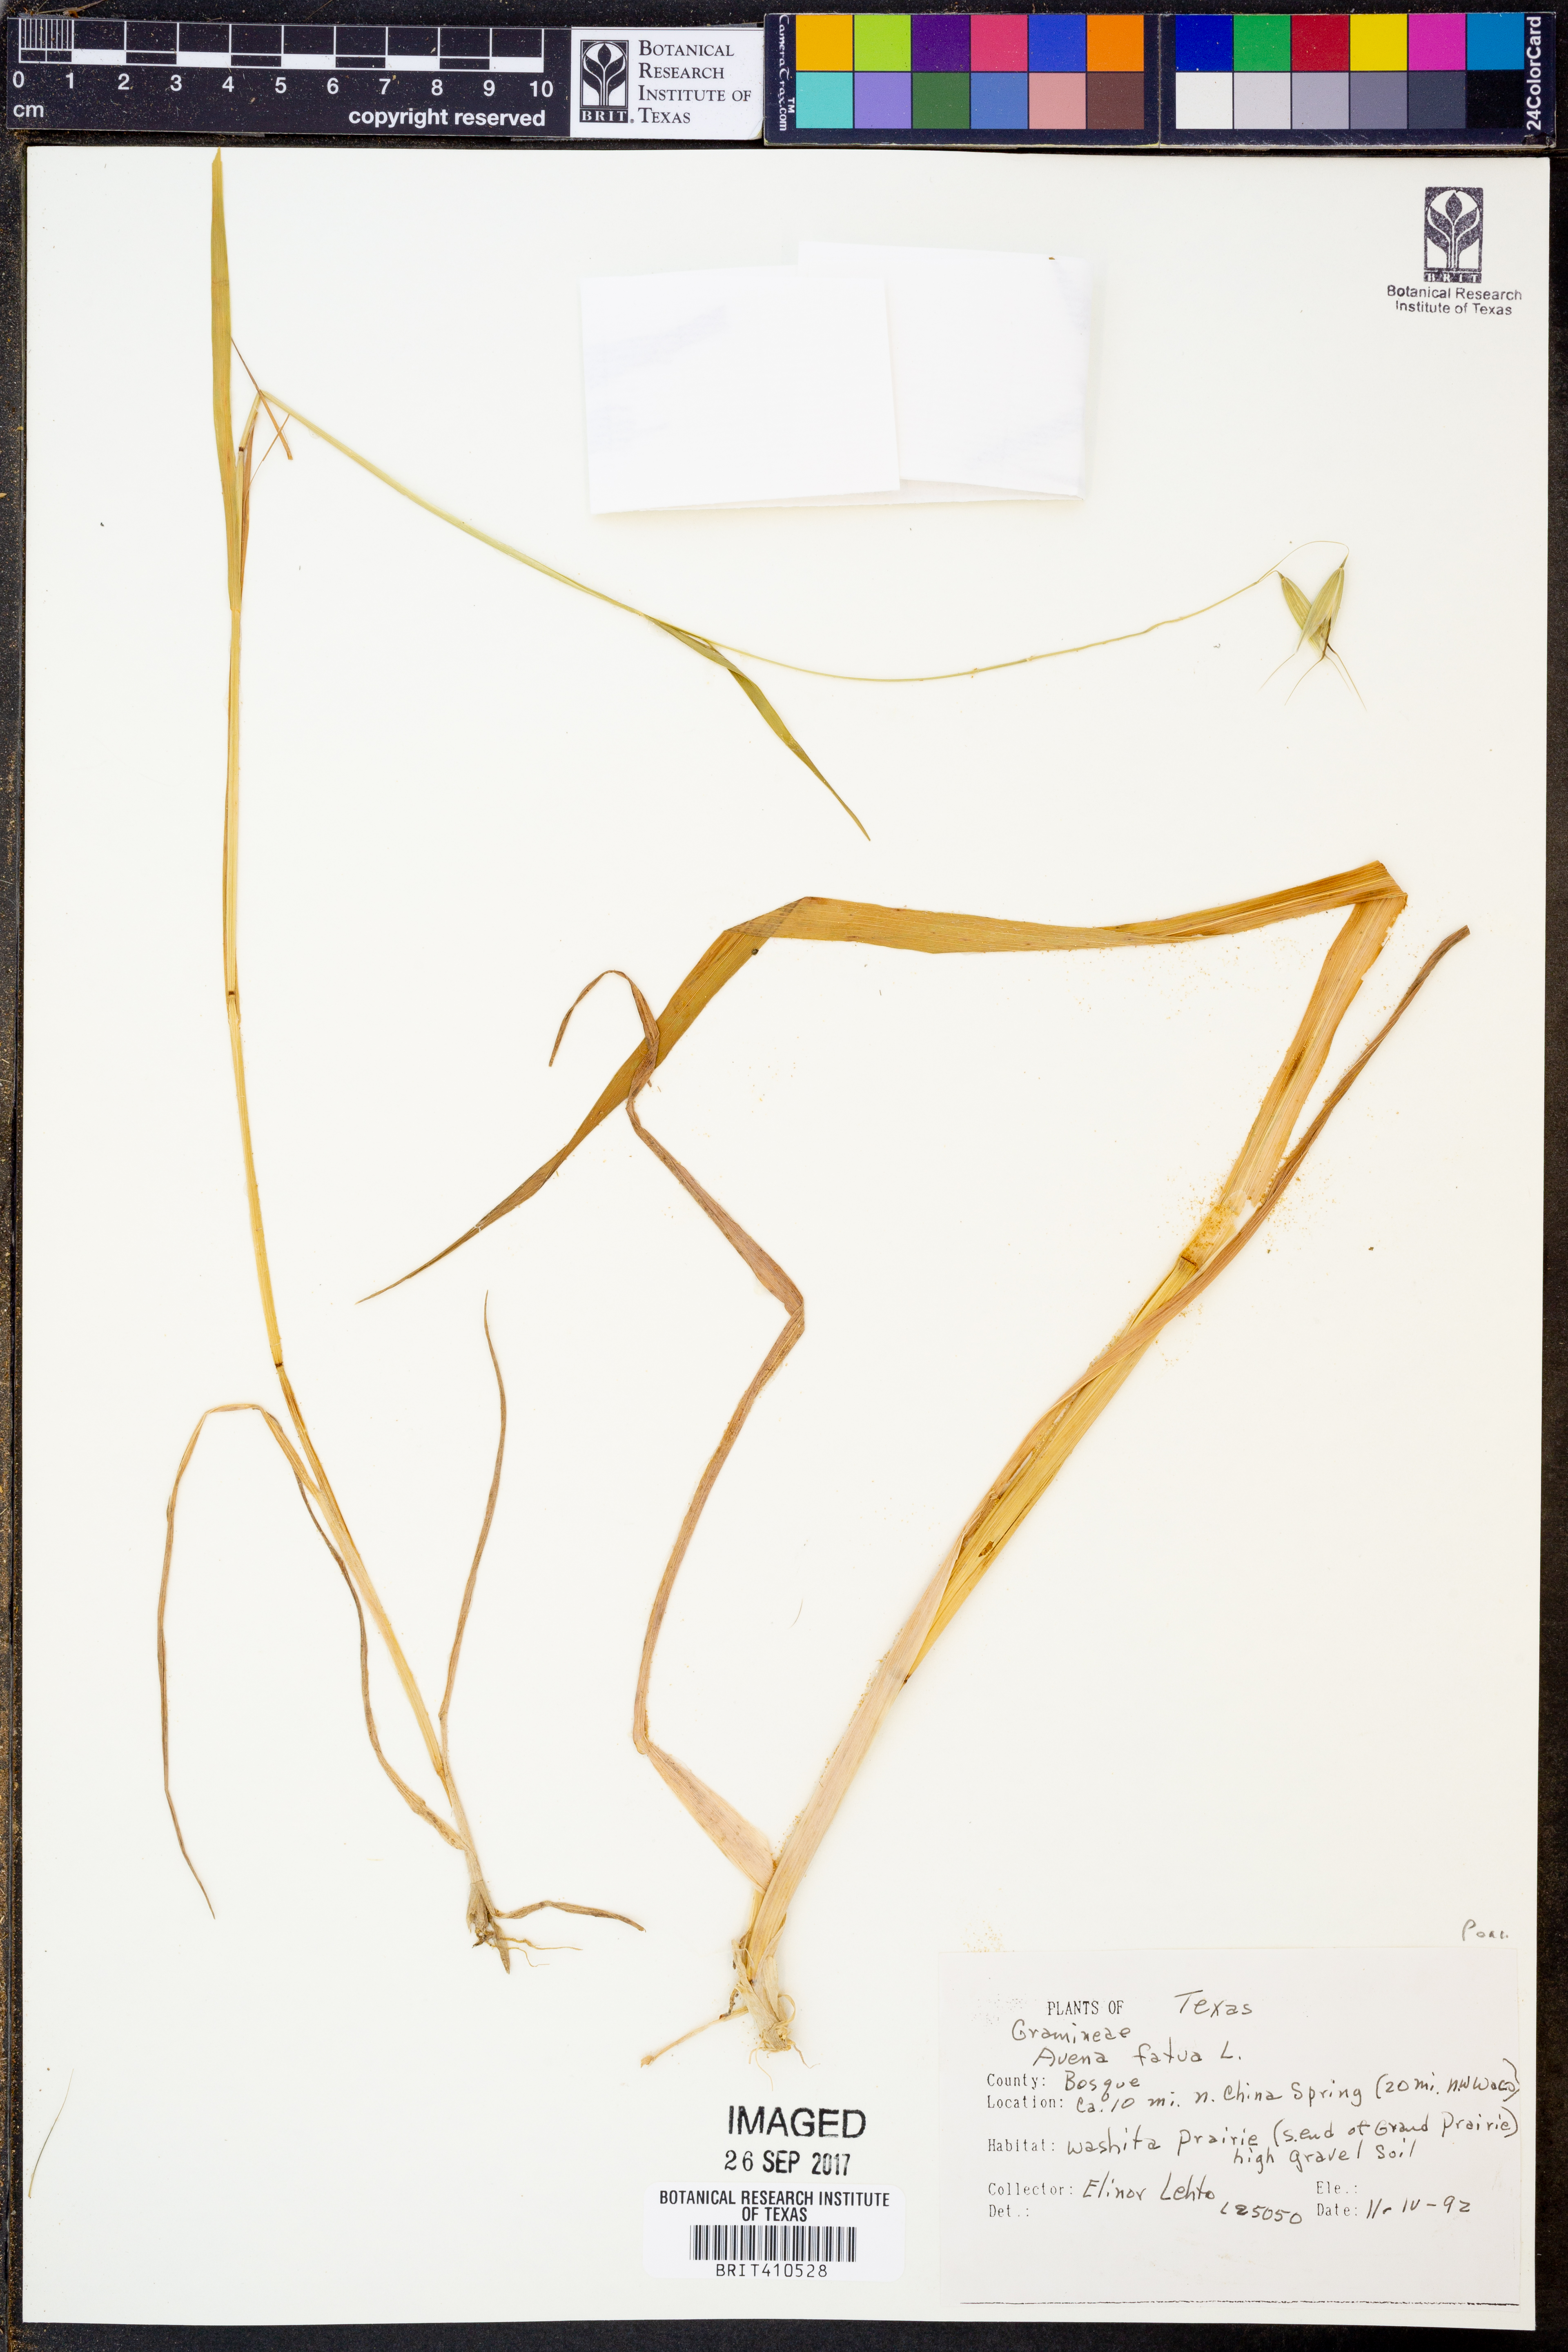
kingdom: Plantae
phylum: Tracheophyta
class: Liliopsida
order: Poales
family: Poaceae
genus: Avena
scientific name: Avena fatua
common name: Wild oat
